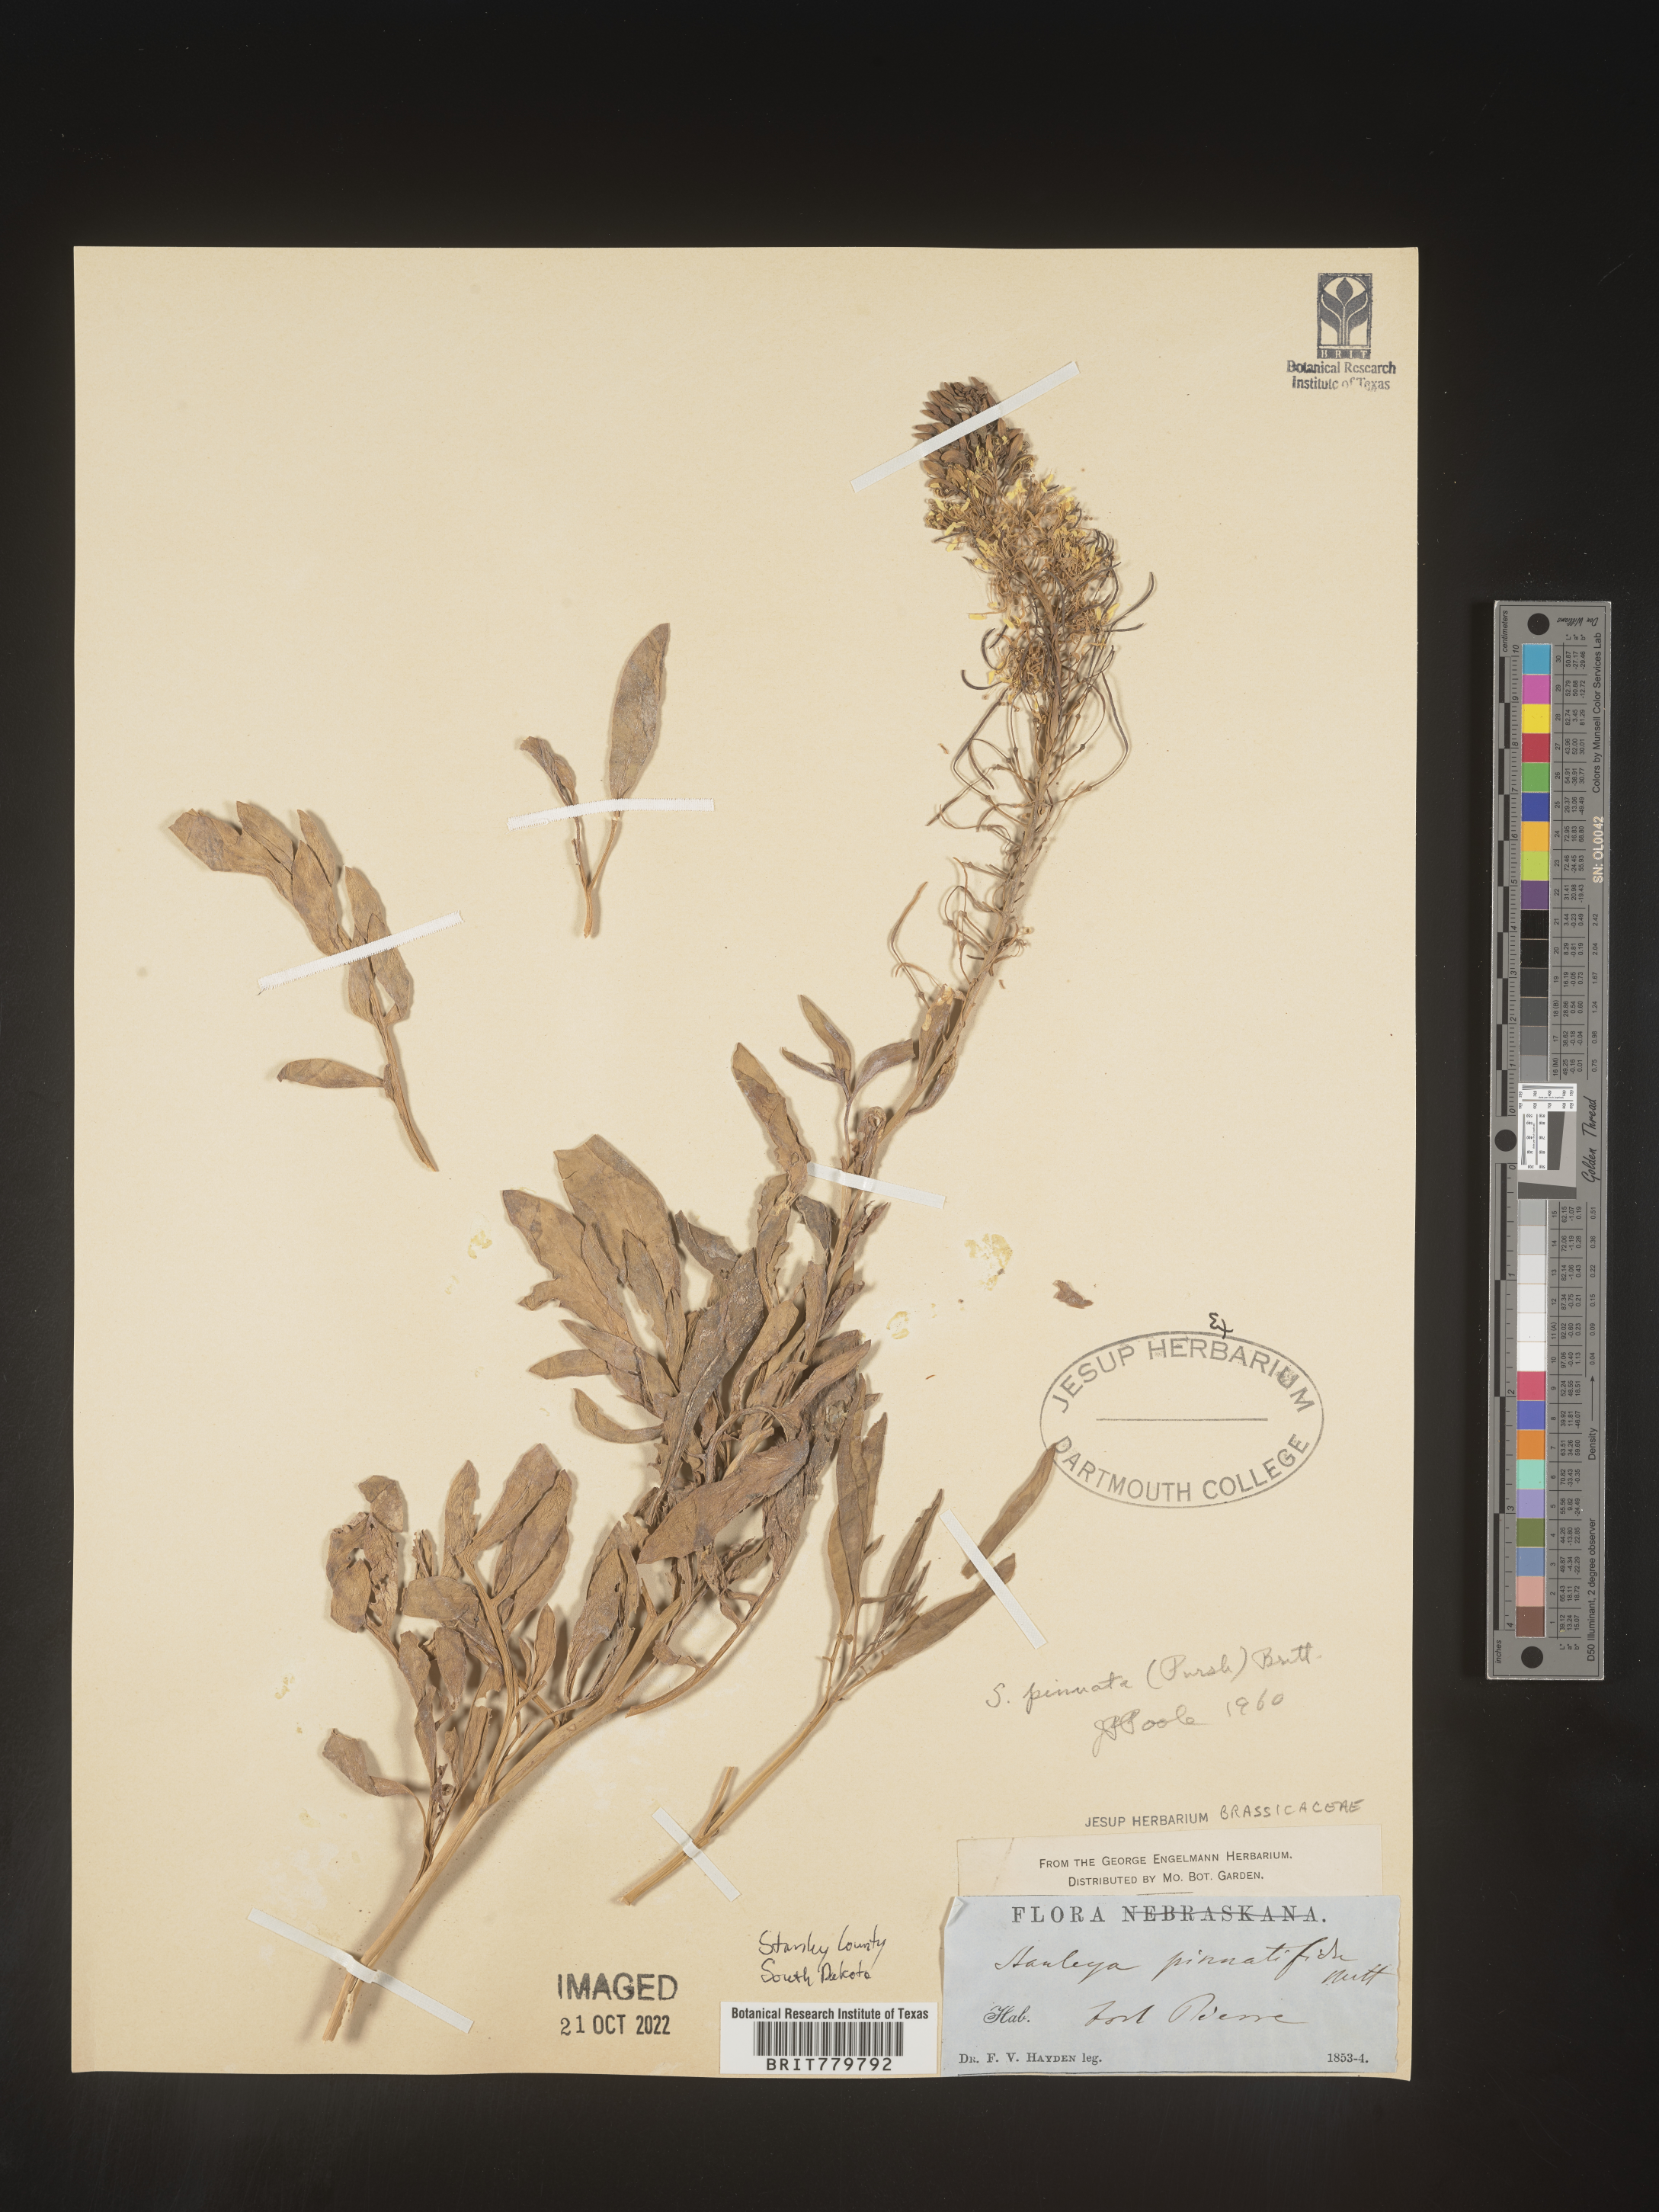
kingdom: Plantae
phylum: Tracheophyta
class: Magnoliopsida
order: Brassicales
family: Brassicaceae
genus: Stanleya
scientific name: Stanleya pinnata
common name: Prince's-plume
